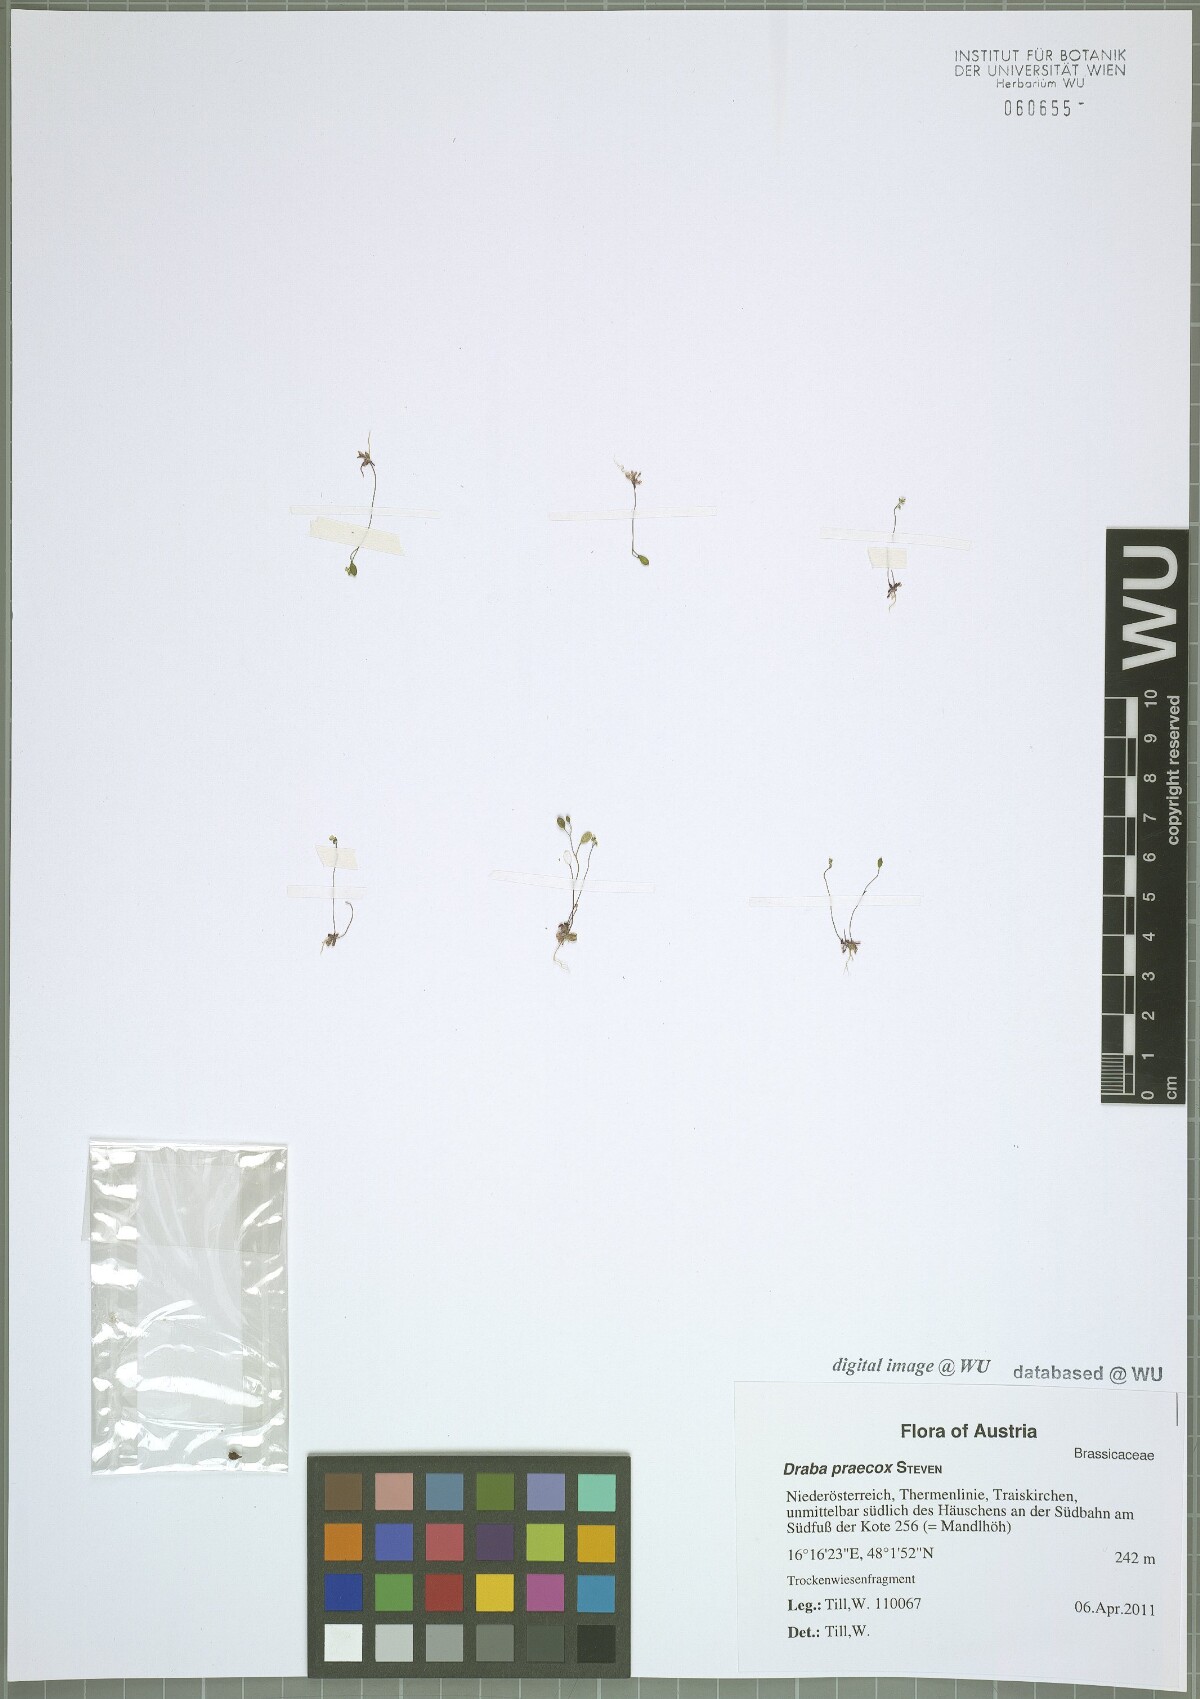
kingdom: Plantae
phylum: Tracheophyta
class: Magnoliopsida
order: Brassicales
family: Brassicaceae
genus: Draba
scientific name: Draba verna
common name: Spring draba
